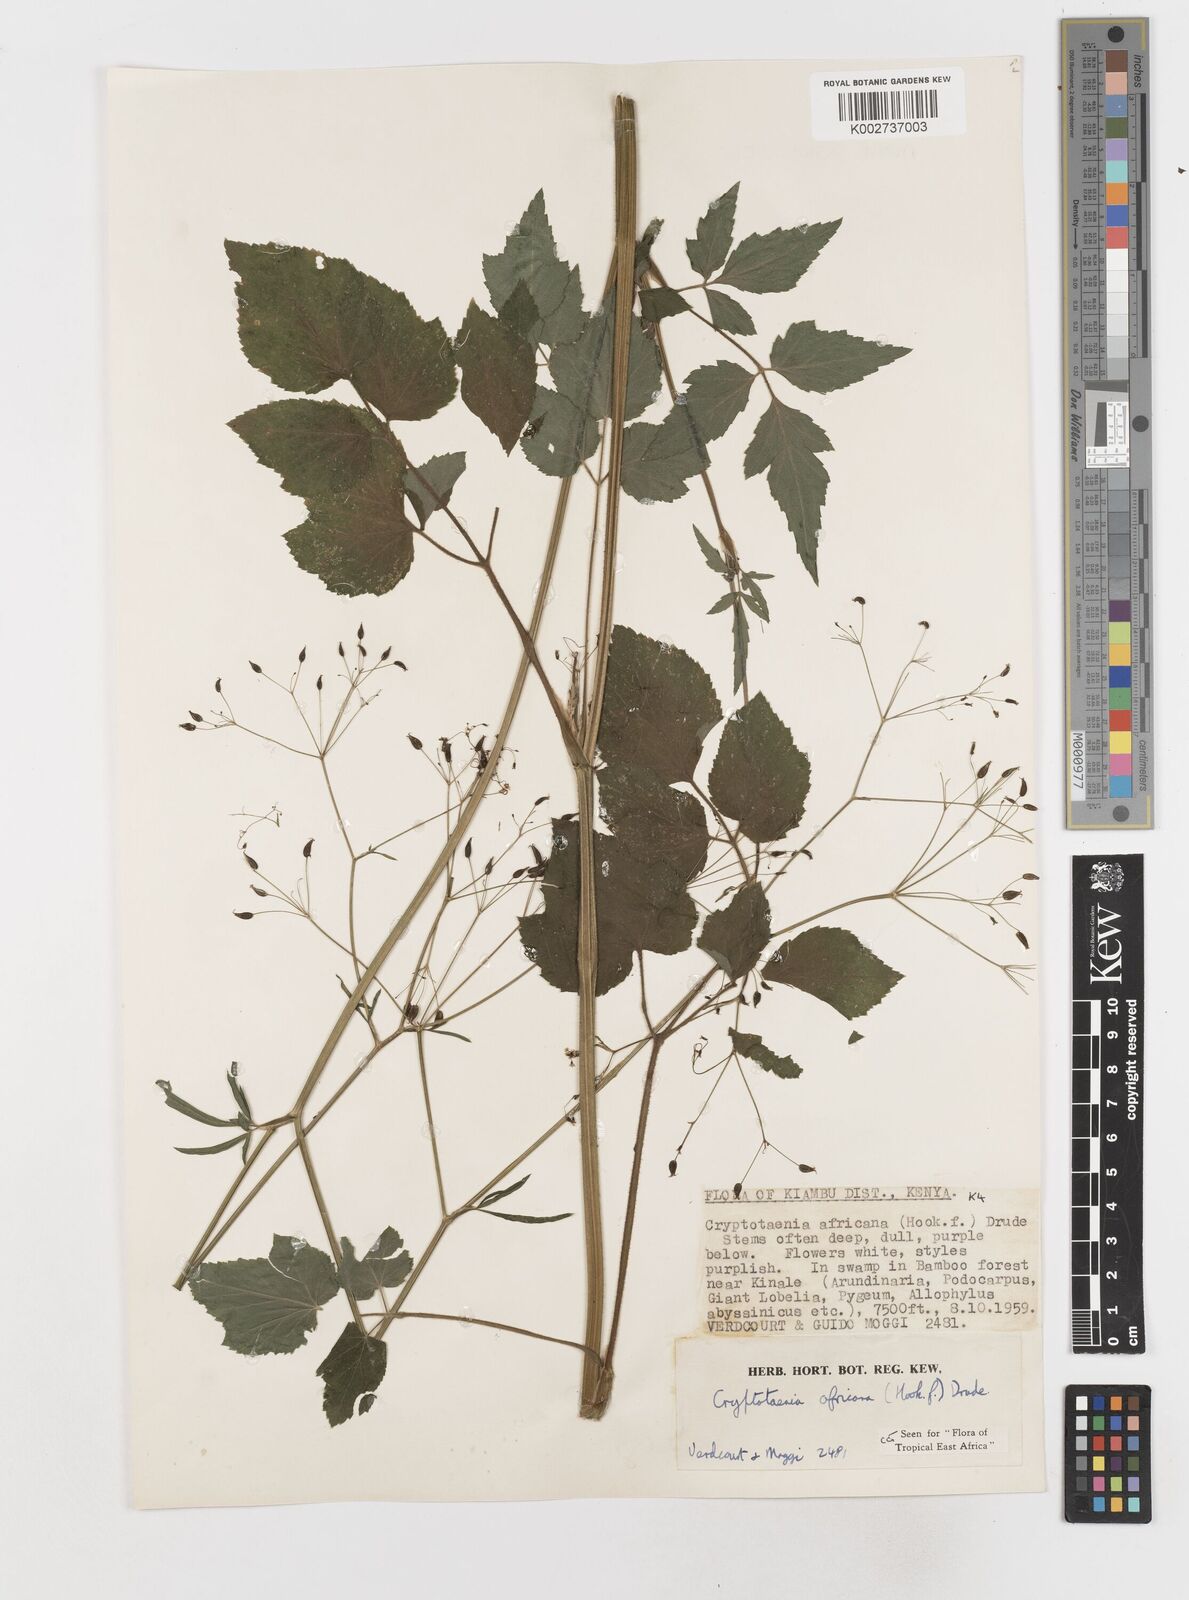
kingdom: Plantae
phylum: Tracheophyta
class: Magnoliopsida
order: Apiales
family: Apiaceae
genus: Cryptotaenia
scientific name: Cryptotaenia africana
